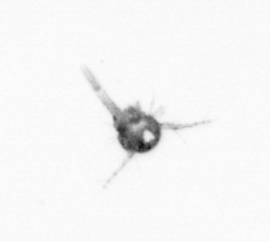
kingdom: Animalia
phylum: Arthropoda
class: Copepoda
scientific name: Copepoda
